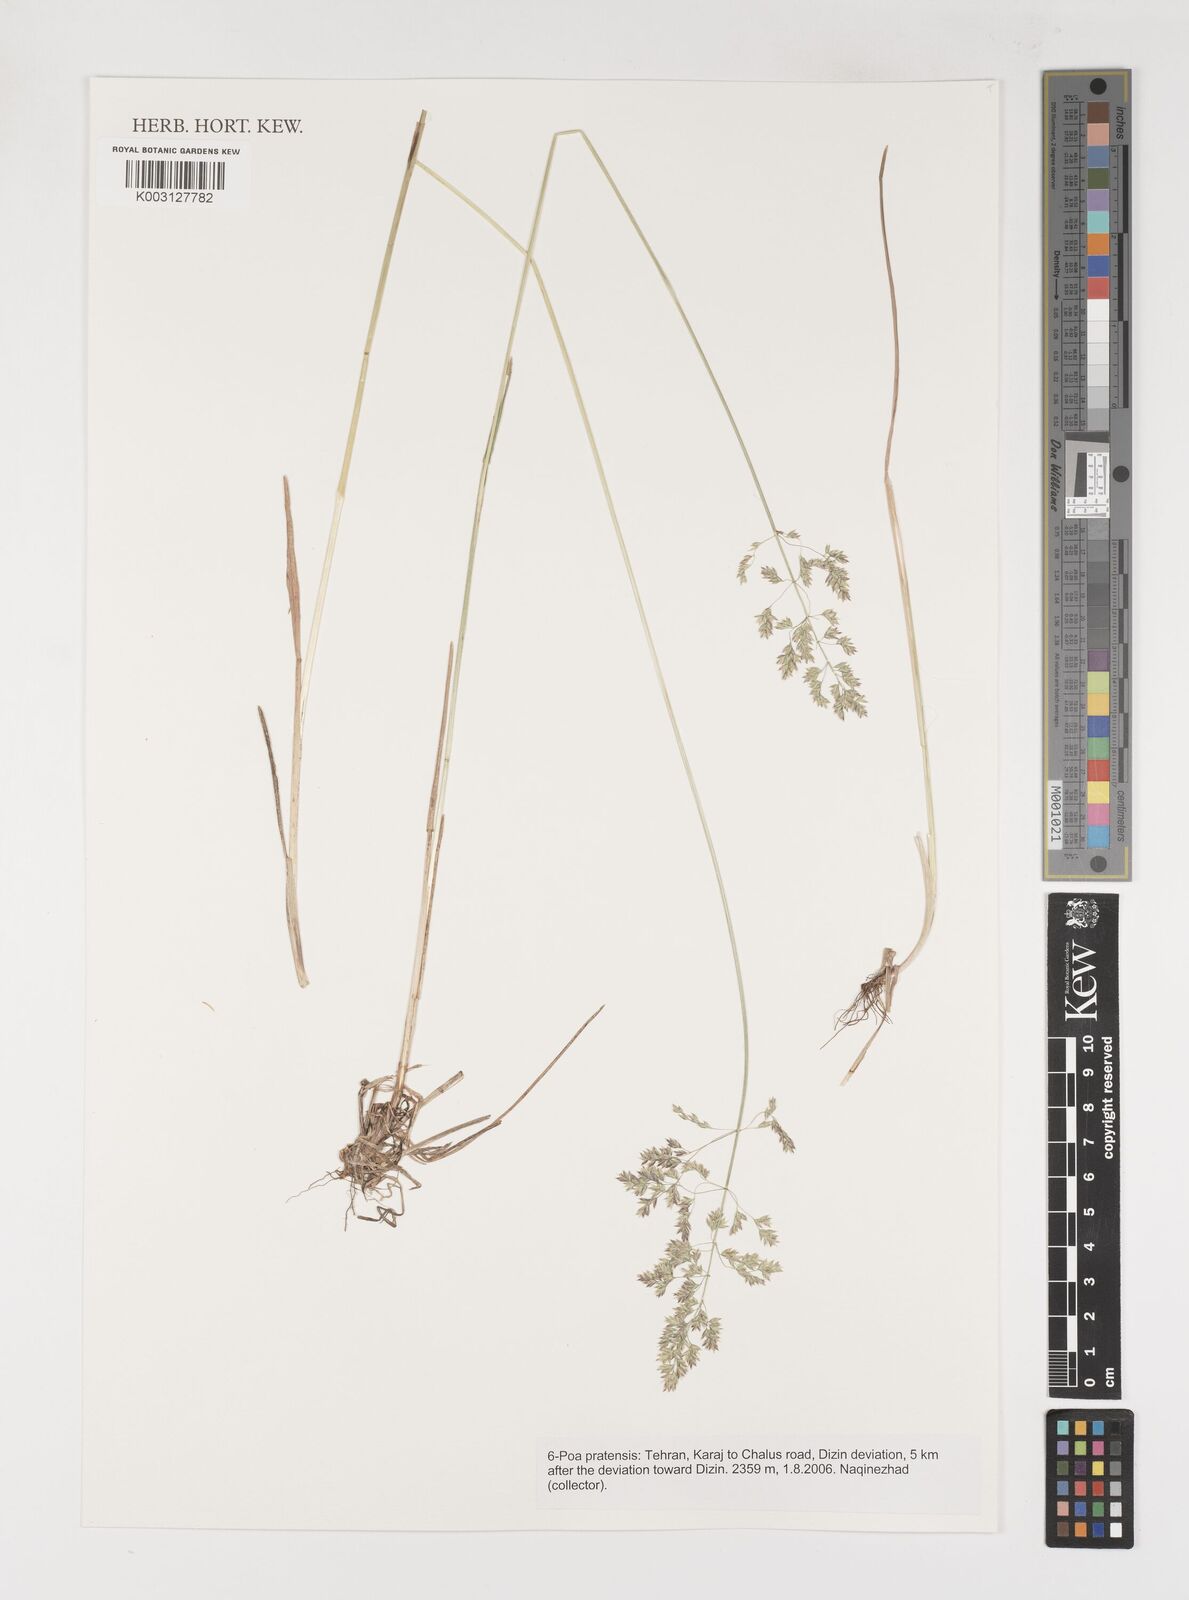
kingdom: Plantae
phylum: Tracheophyta
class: Liliopsida
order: Poales
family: Poaceae
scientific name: Poaceae
